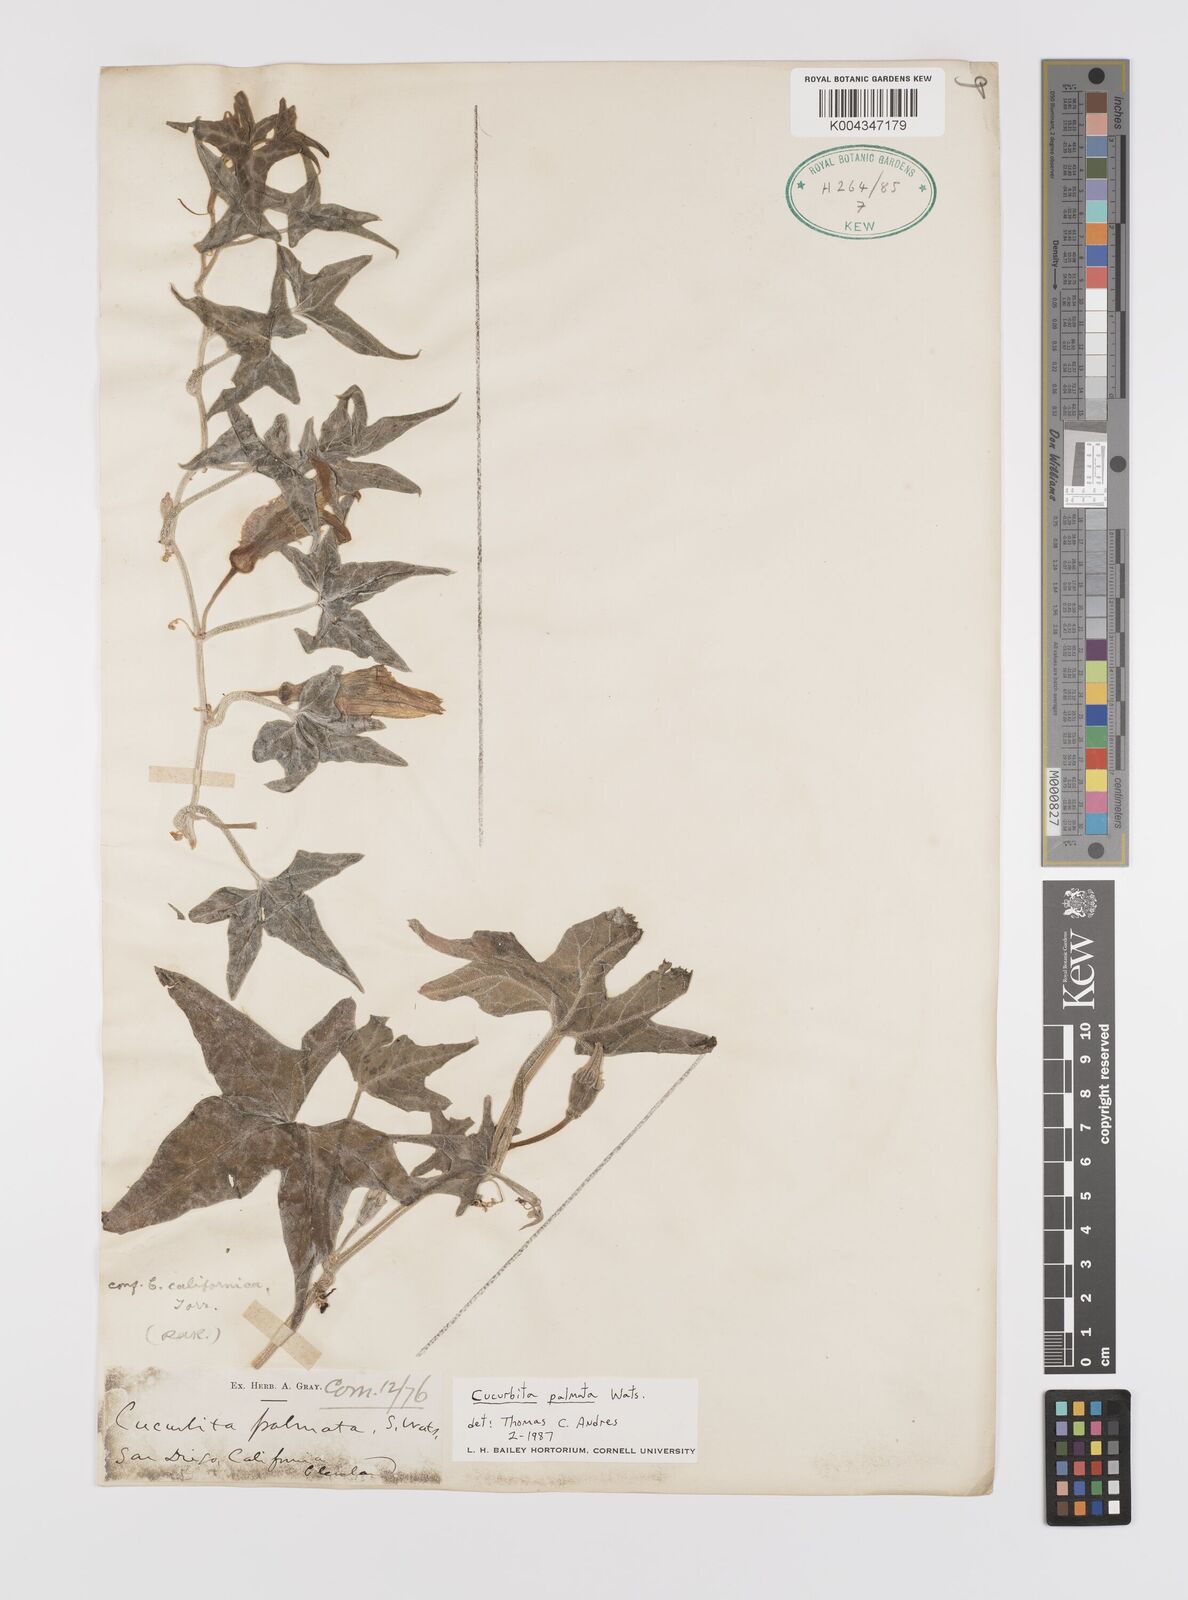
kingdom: Plantae
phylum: Tracheophyta
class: Magnoliopsida
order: Cucurbitales
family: Cucurbitaceae
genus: Cucurbita
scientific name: Cucurbita palmata
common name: Coyote-melon
